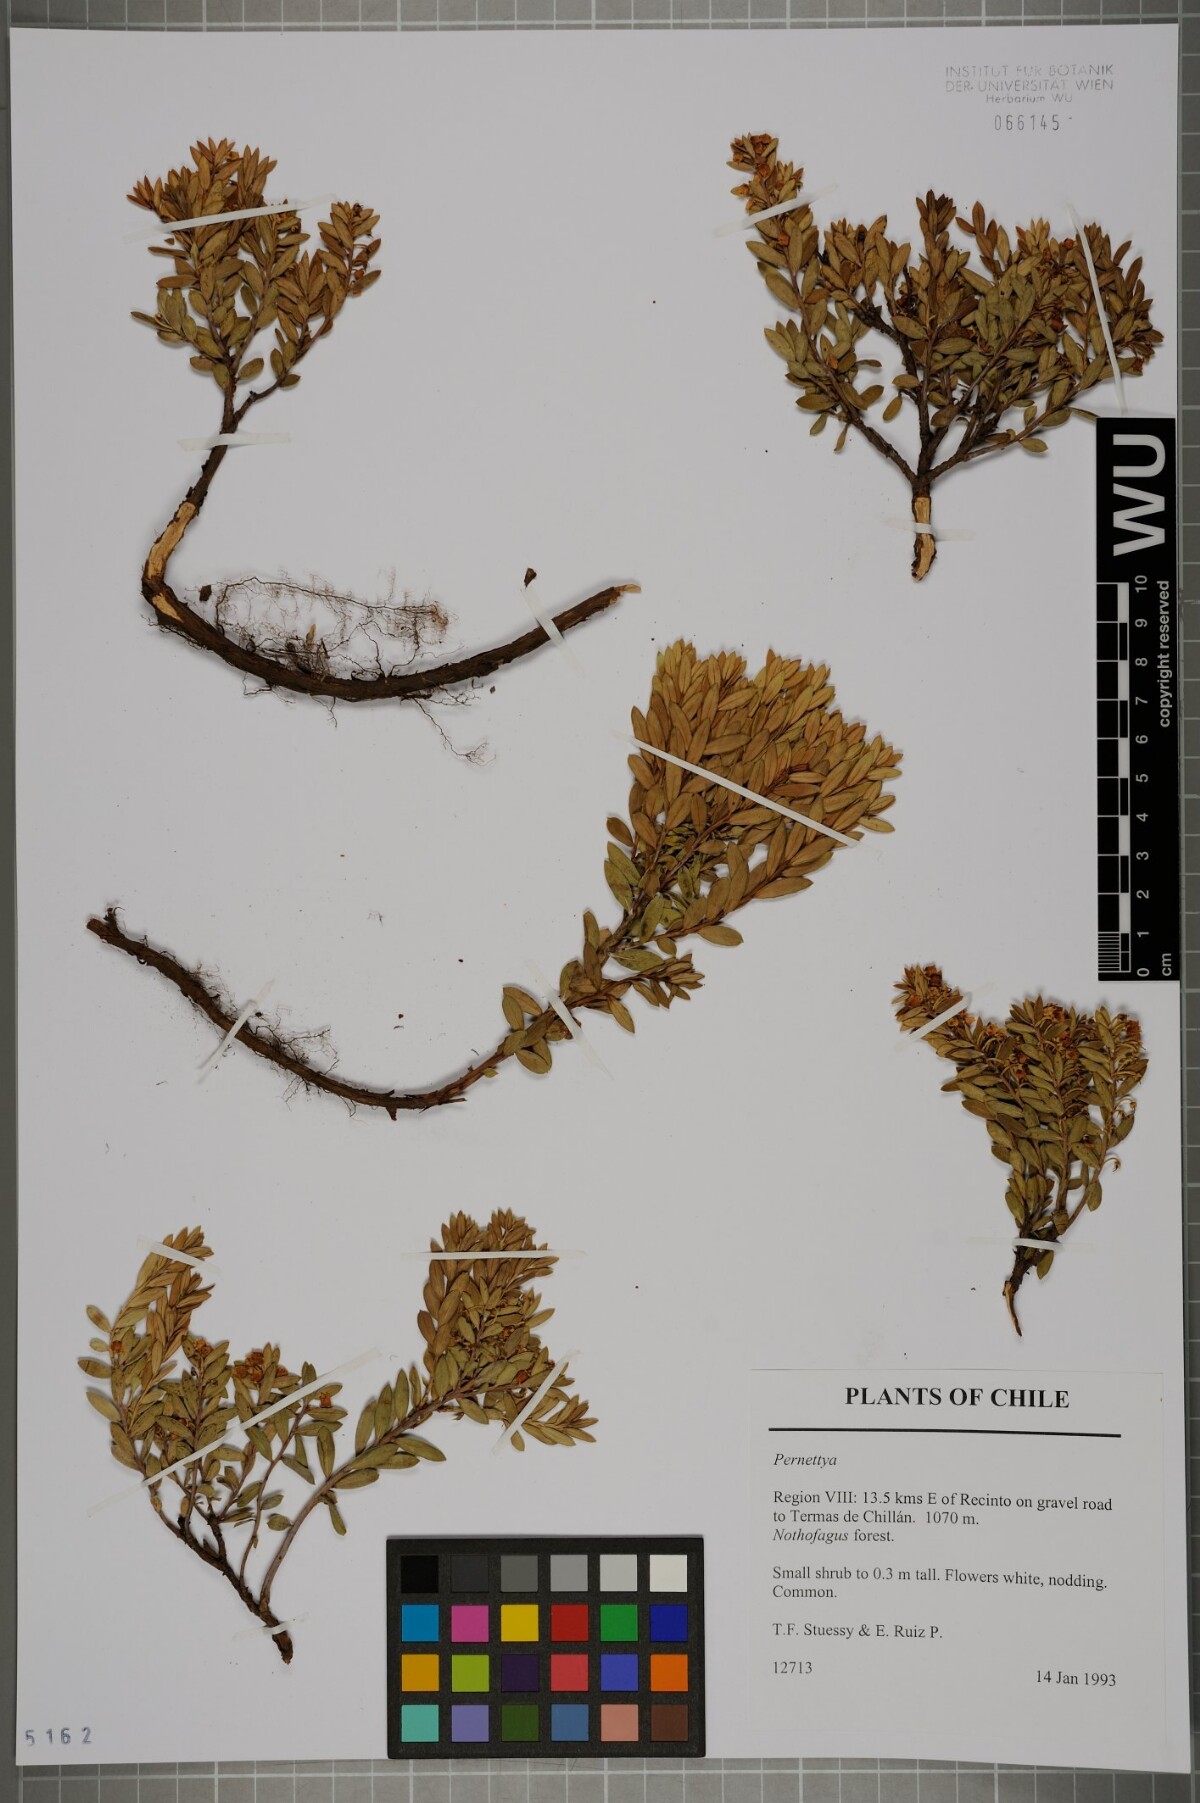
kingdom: Plantae
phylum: Tracheophyta
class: Magnoliopsida
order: Ericales
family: Ericaceae
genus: Gaultheria
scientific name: Gaultheria
